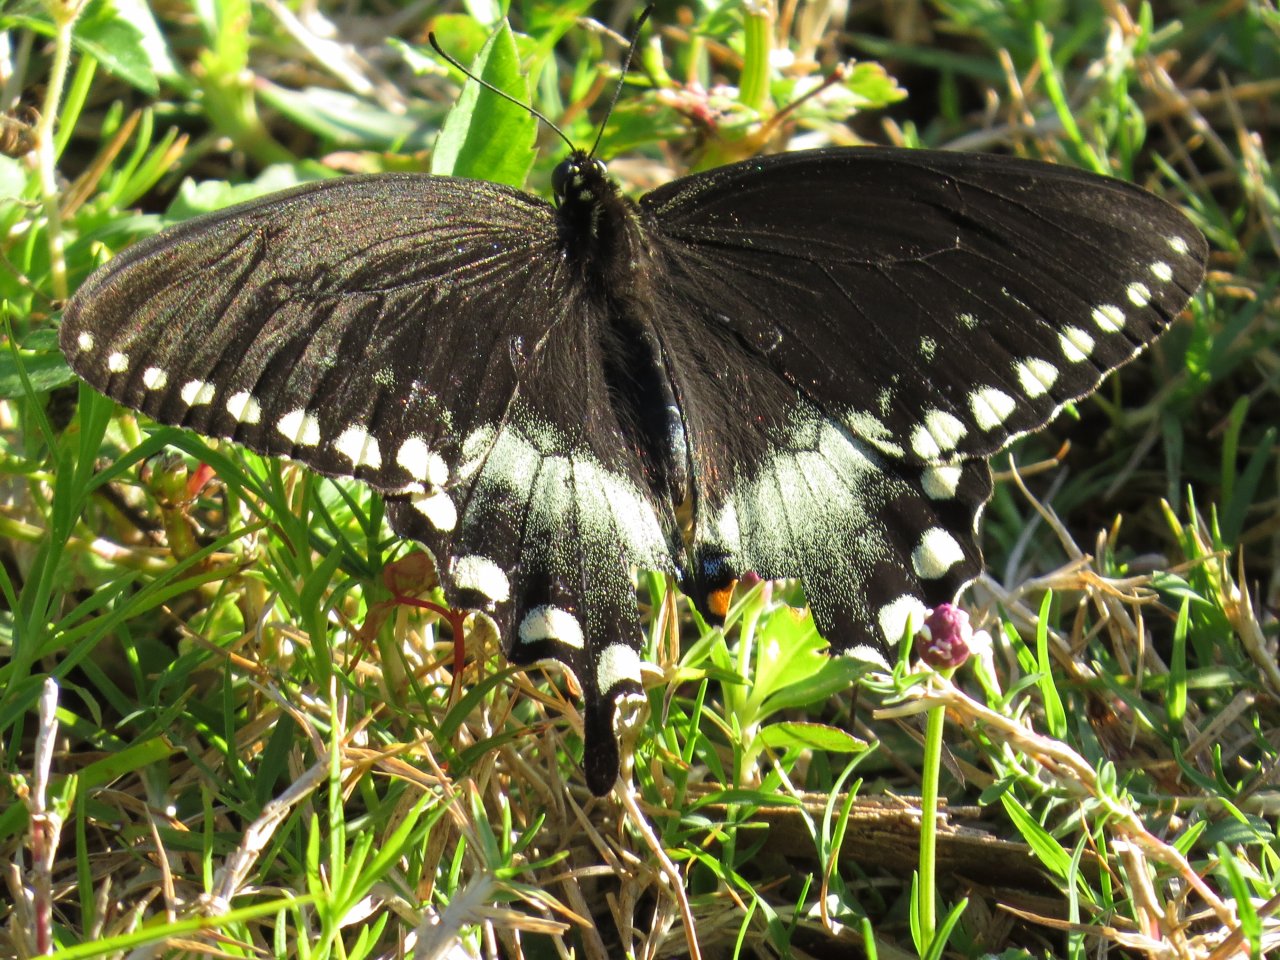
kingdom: Animalia
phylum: Arthropoda
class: Insecta
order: Lepidoptera
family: Papilionidae
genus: Pterourus
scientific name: Pterourus troilus
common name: Spicebush Swallowtail
